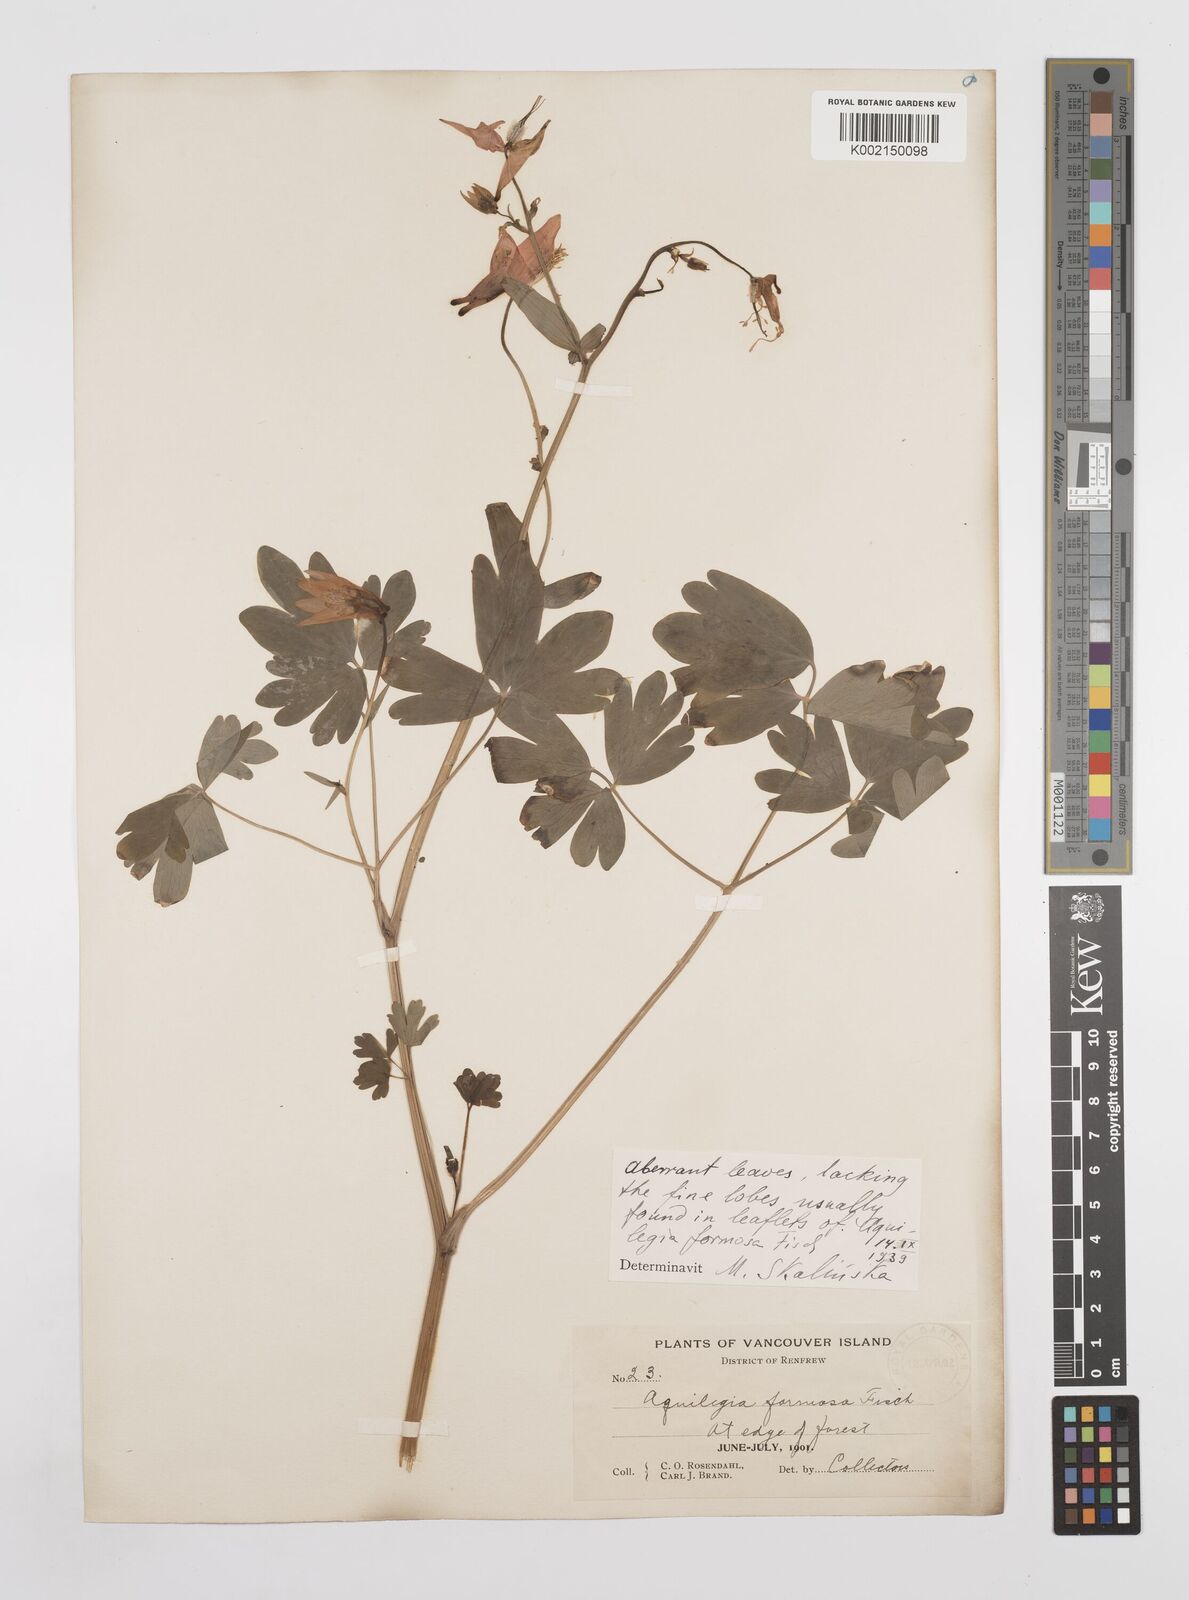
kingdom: Plantae
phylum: Tracheophyta
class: Magnoliopsida
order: Ranunculales
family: Ranunculaceae
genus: Aquilegia
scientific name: Aquilegia
